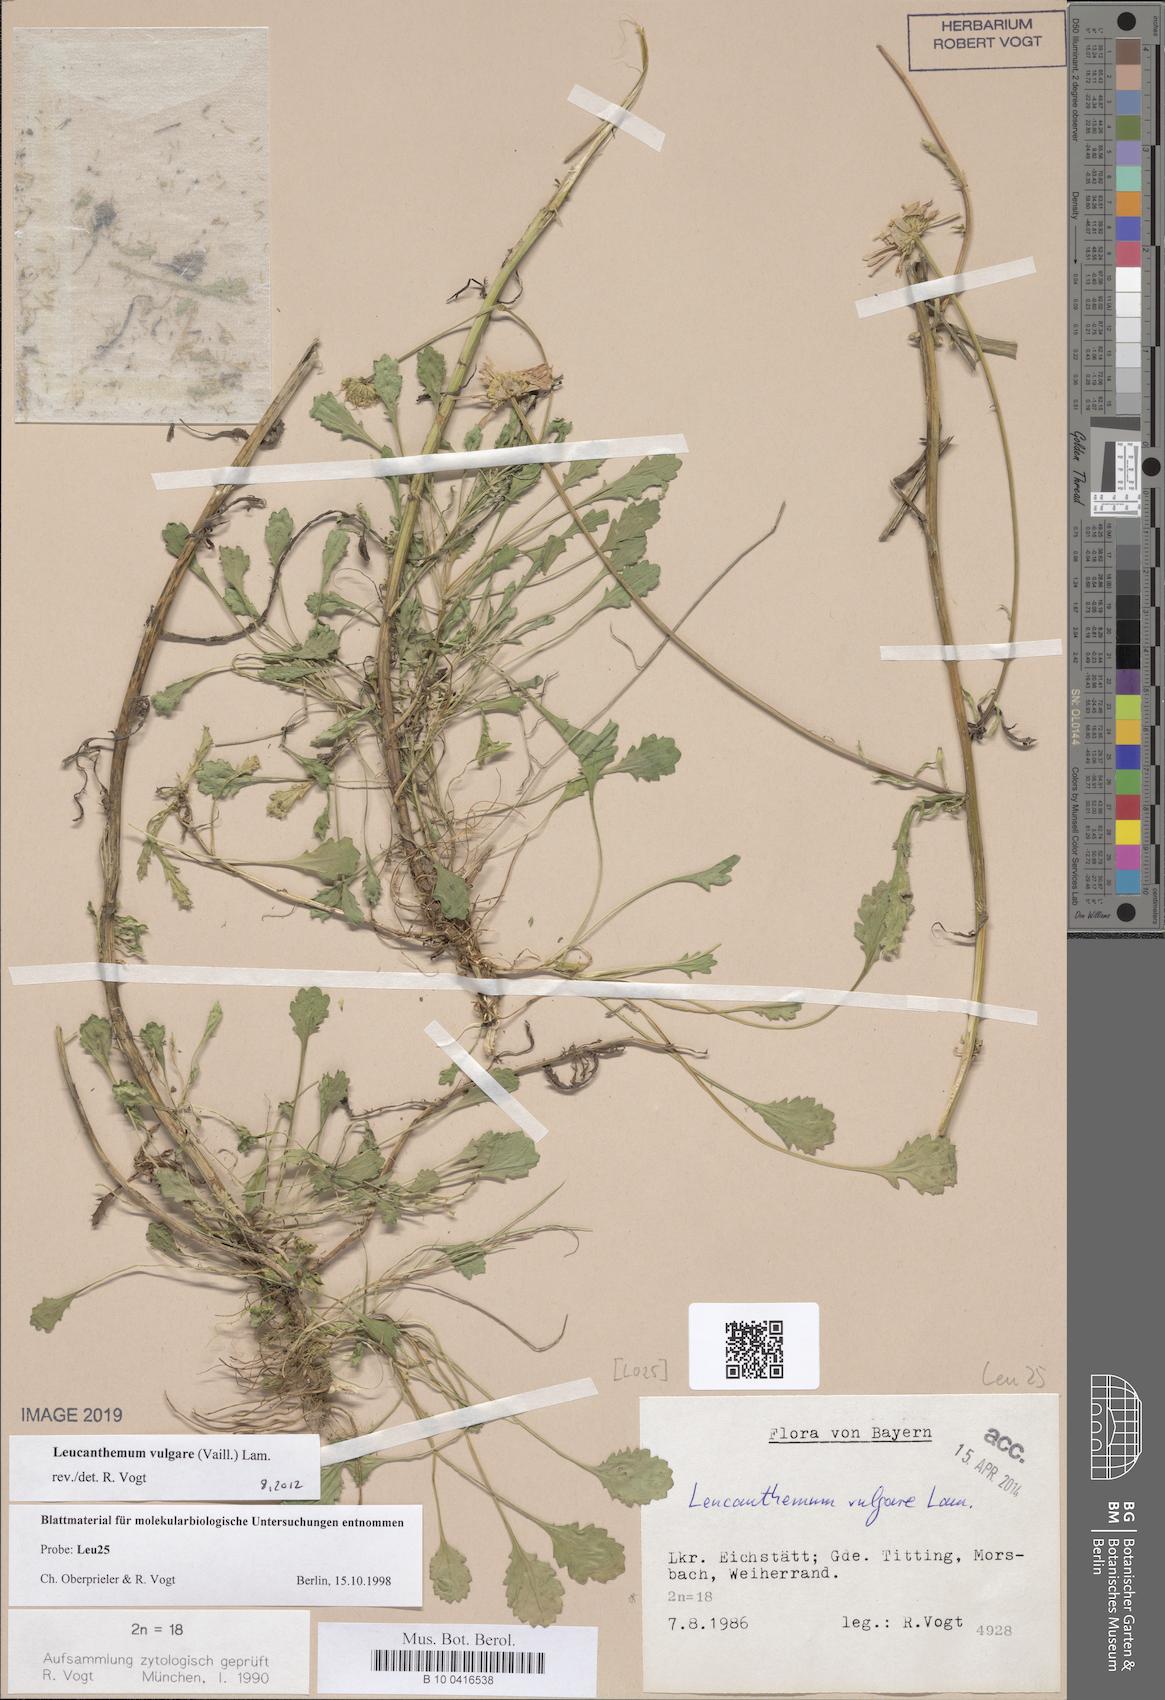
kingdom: Plantae
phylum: Tracheophyta
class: Magnoliopsida
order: Asterales
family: Asteraceae
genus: Leucanthemum
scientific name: Leucanthemum vulgare
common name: Oxeye daisy
